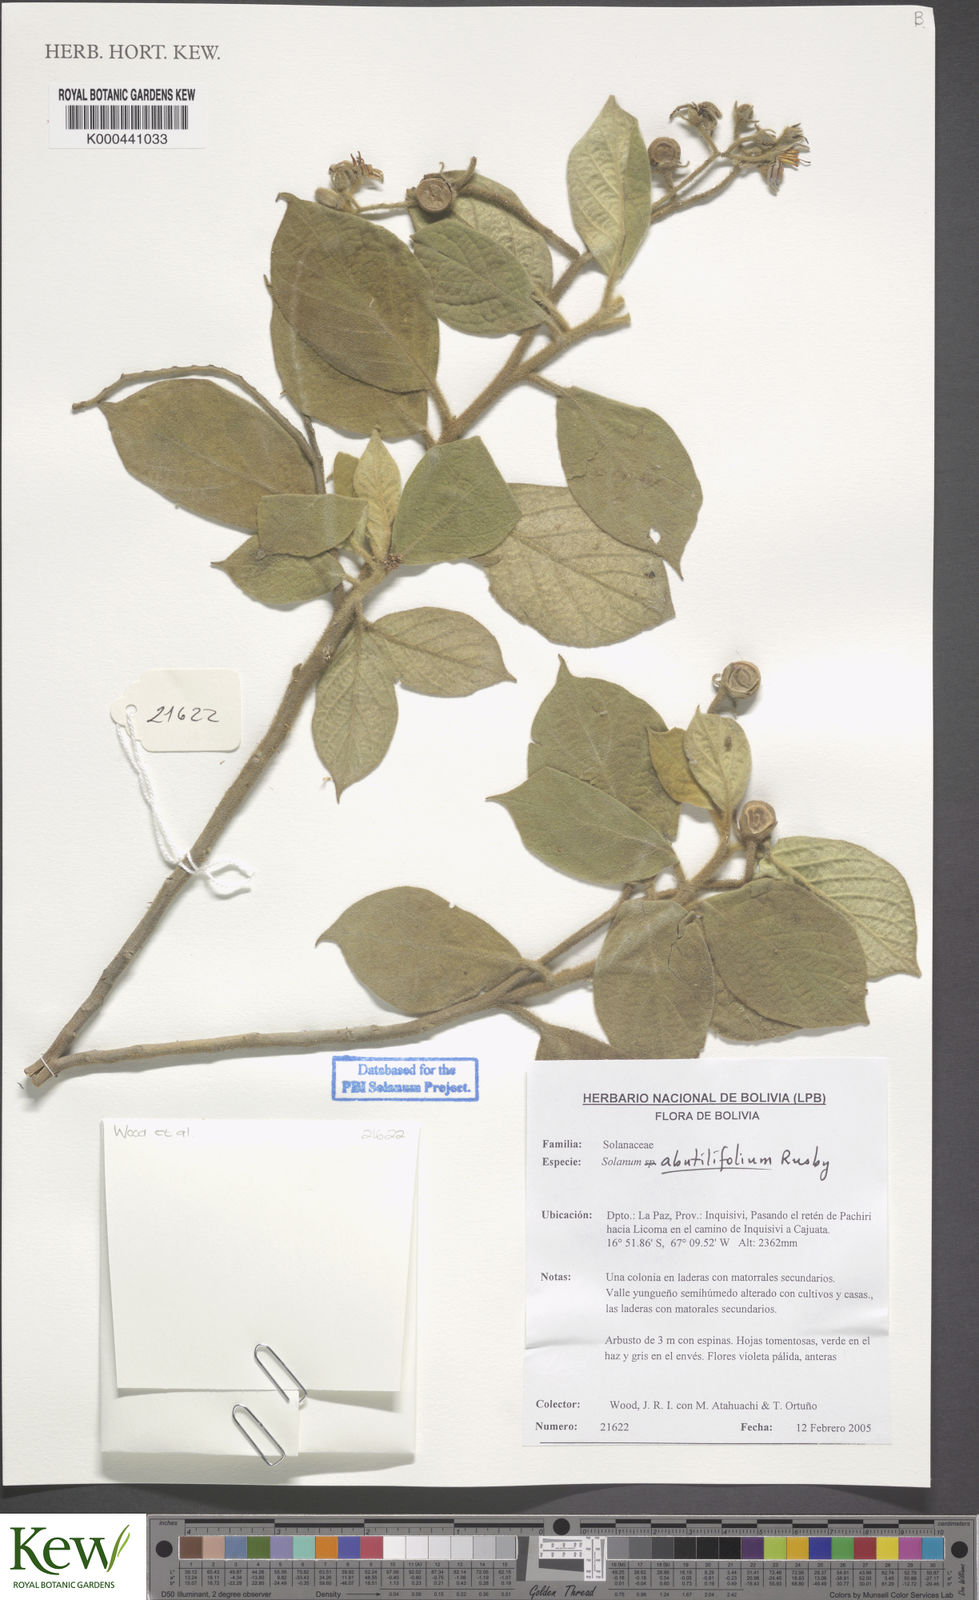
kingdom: Plantae
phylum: Tracheophyta
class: Magnoliopsida
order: Solanales
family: Solanaceae
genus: Solanum
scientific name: Solanum abutilifolium
